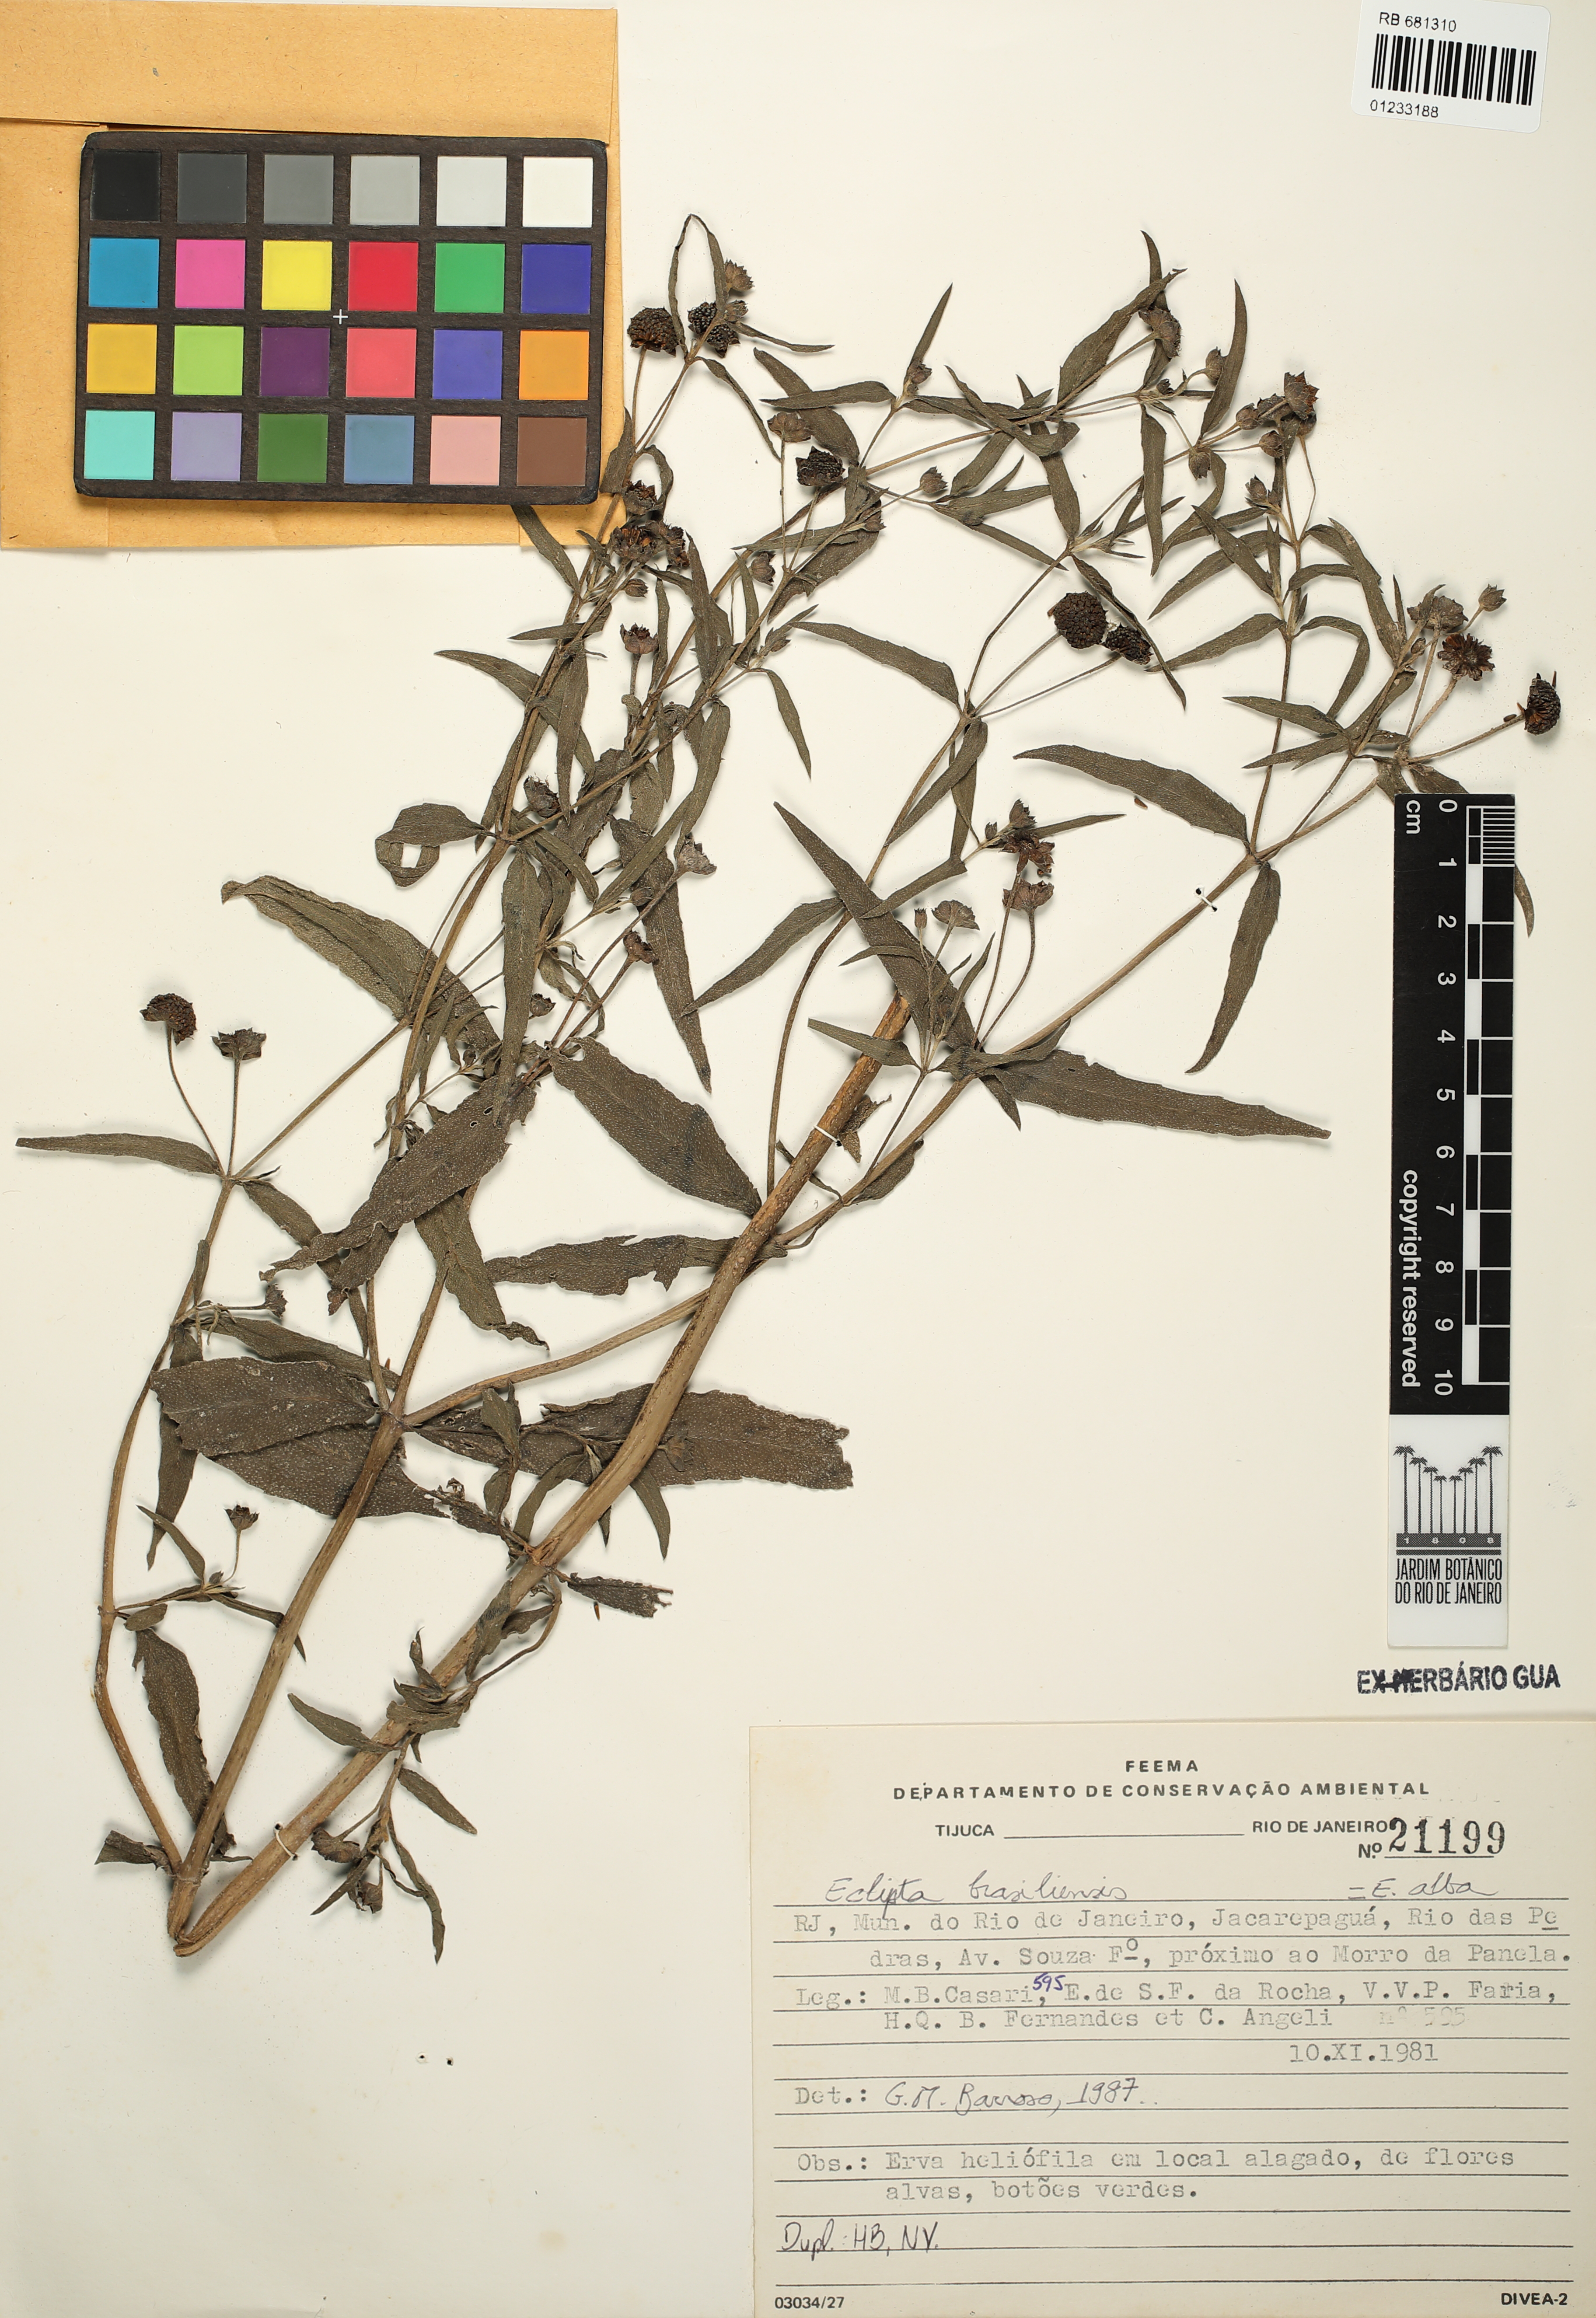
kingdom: Plantae
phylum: Tracheophyta
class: Magnoliopsida
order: Asterales
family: Asteraceae
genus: Eclipta
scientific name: Eclipta alba
